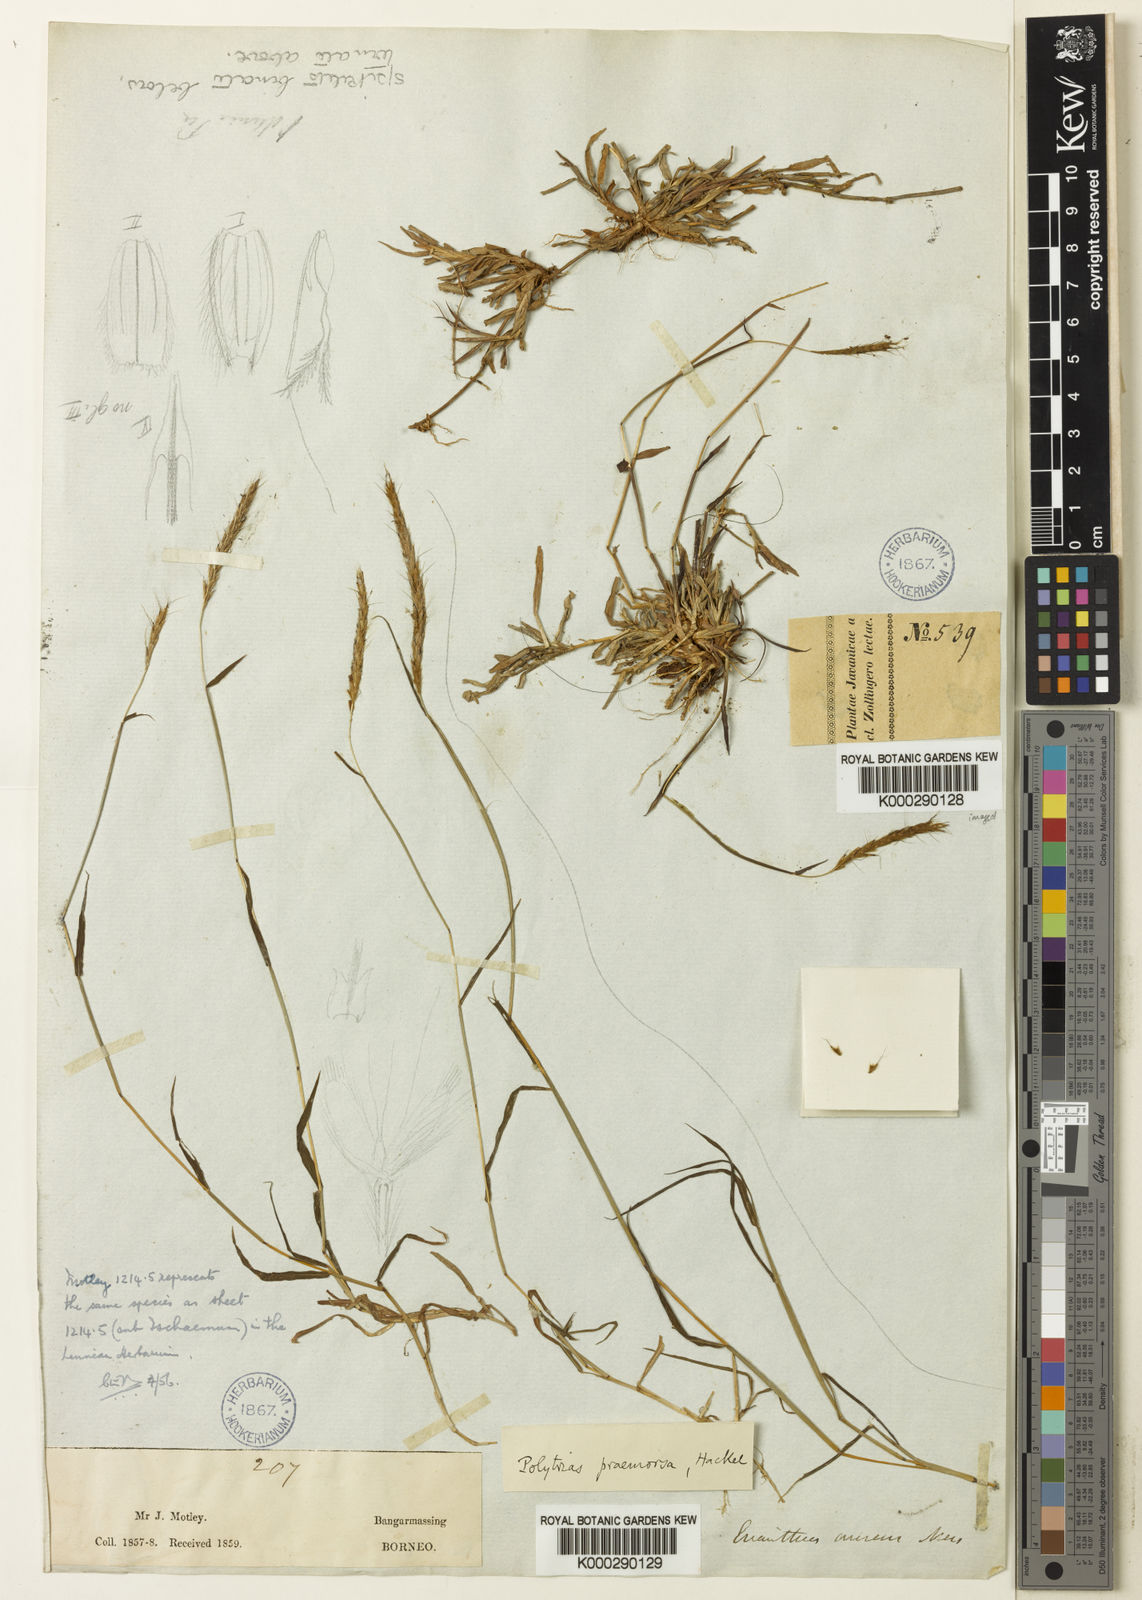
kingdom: Plantae
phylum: Tracheophyta
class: Liliopsida
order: Poales
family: Poaceae
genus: Polytrias
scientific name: Polytrias indica
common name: Indian murainagrass
